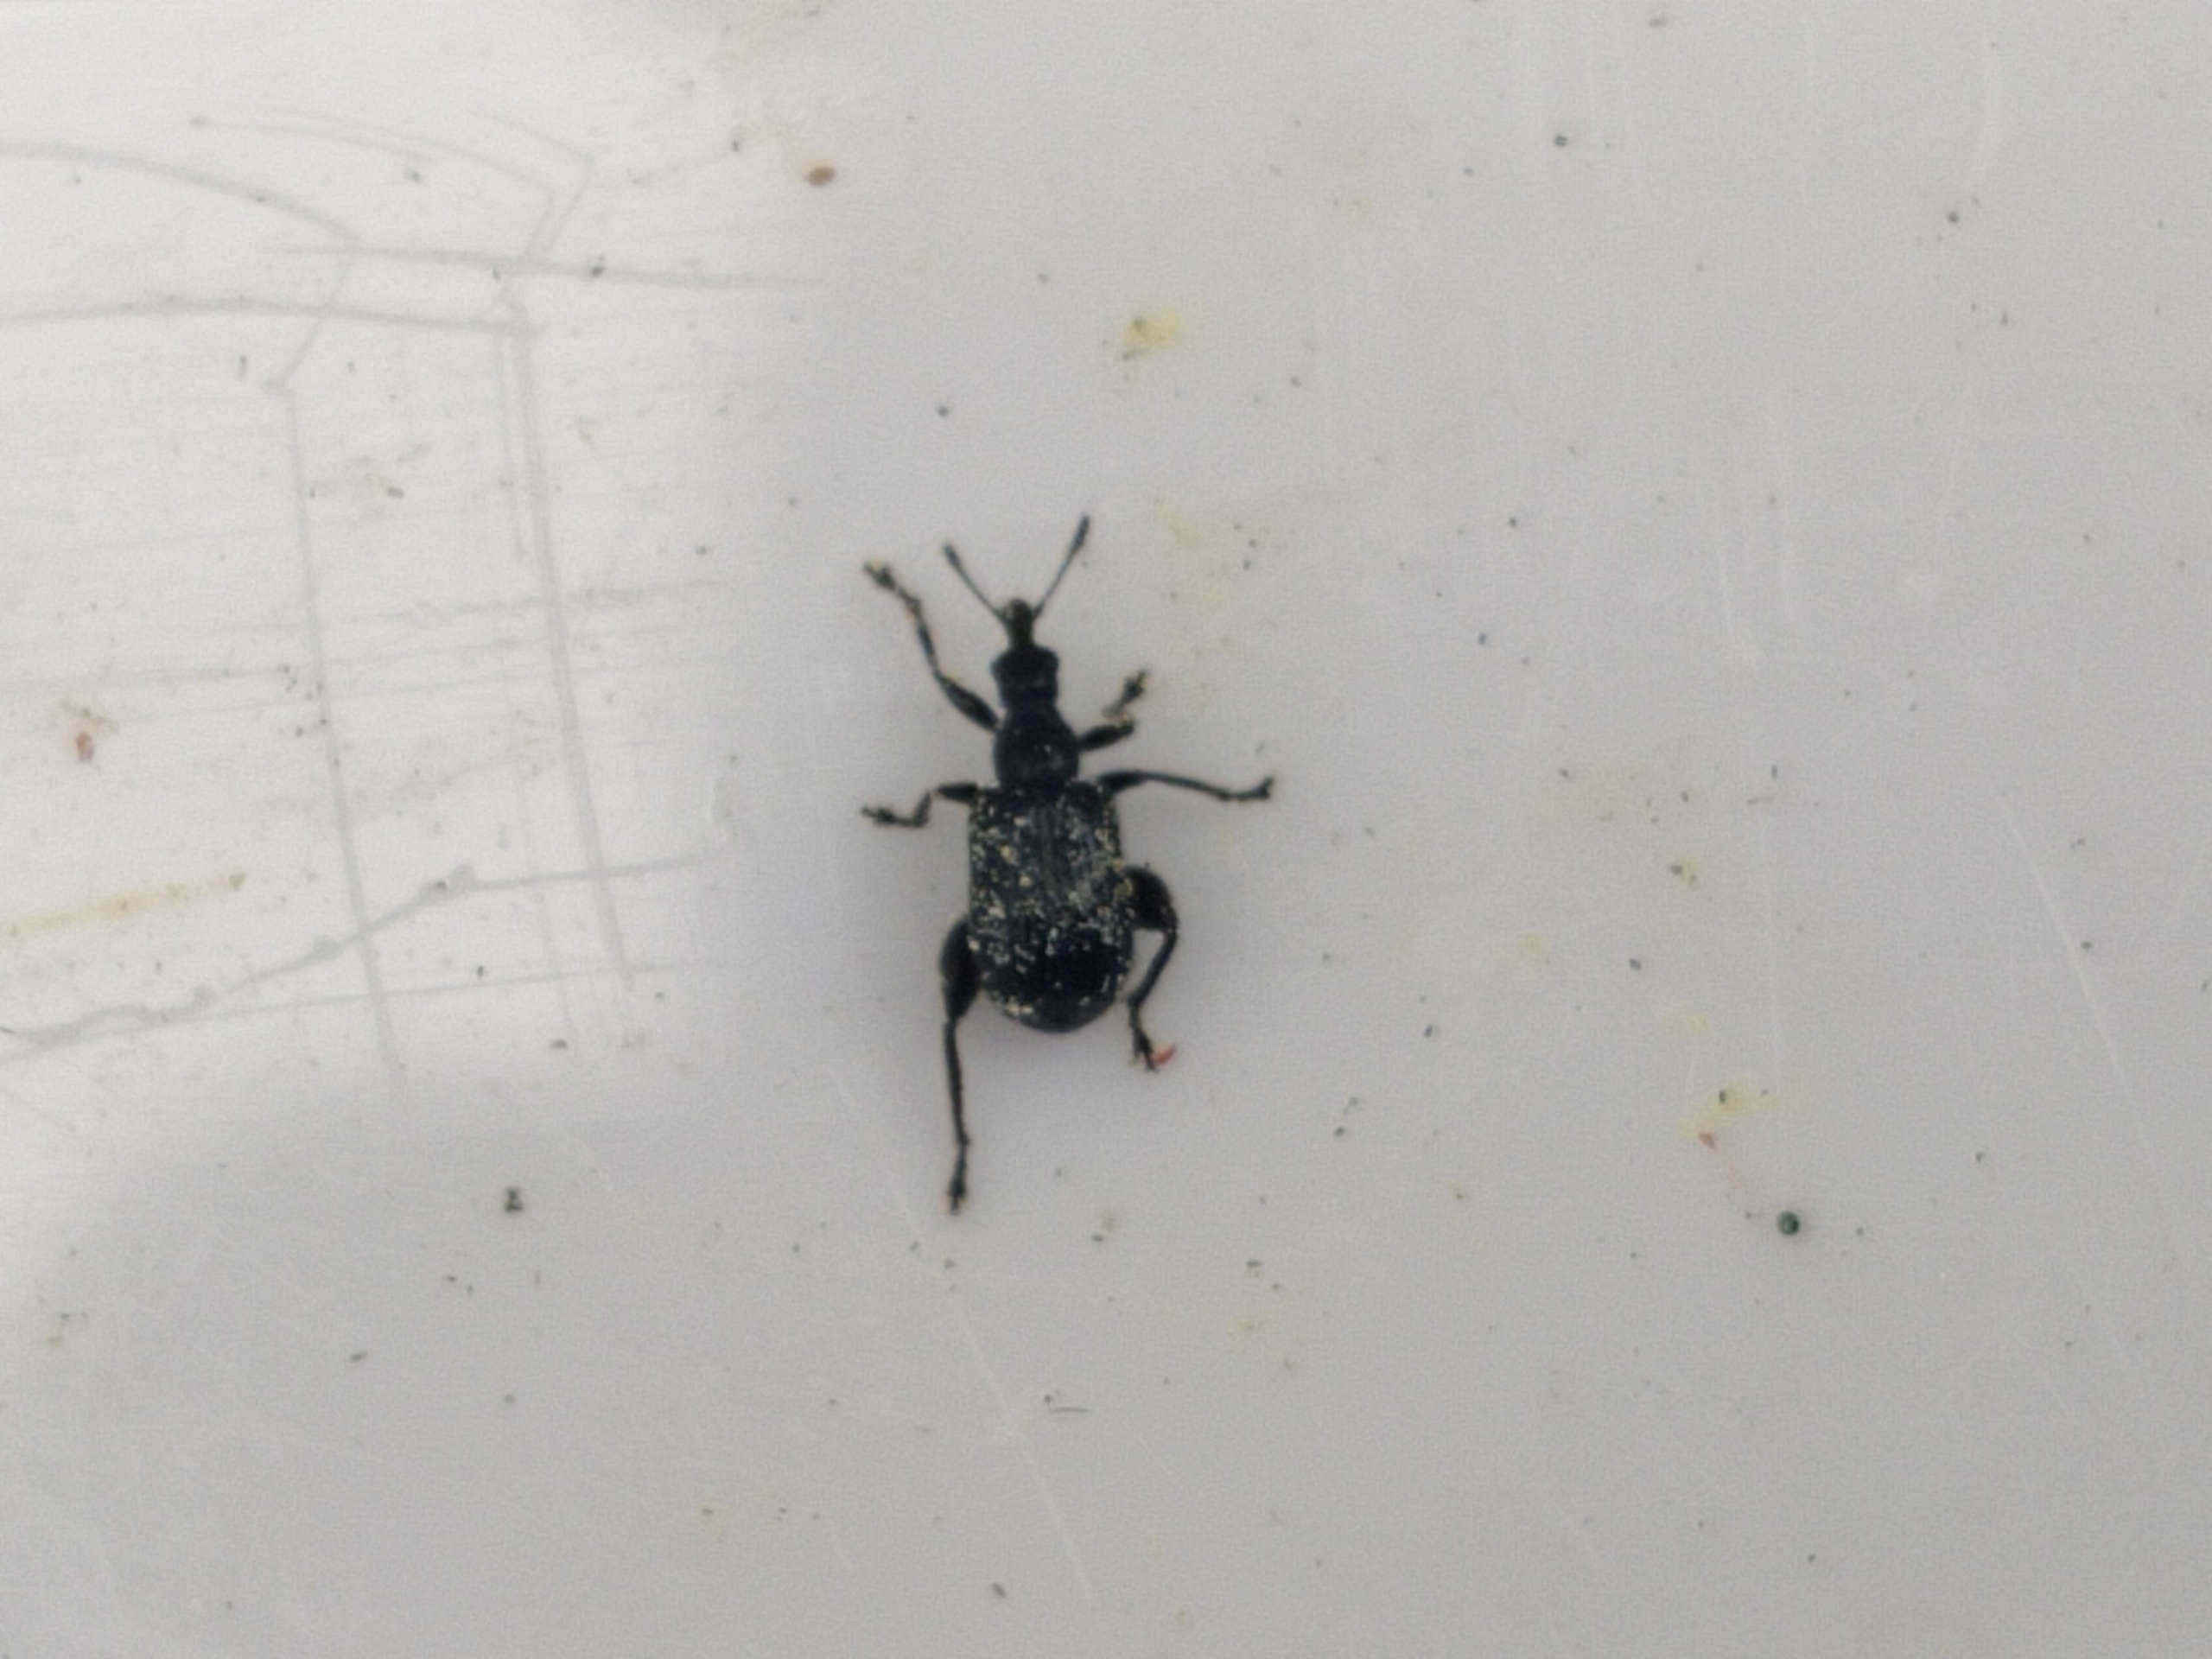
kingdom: Animalia
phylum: Arthropoda
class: Insecta
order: Coleoptera
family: Attelabidae
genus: Byctiscus
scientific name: Byctiscus betulae
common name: Birkebladruller
